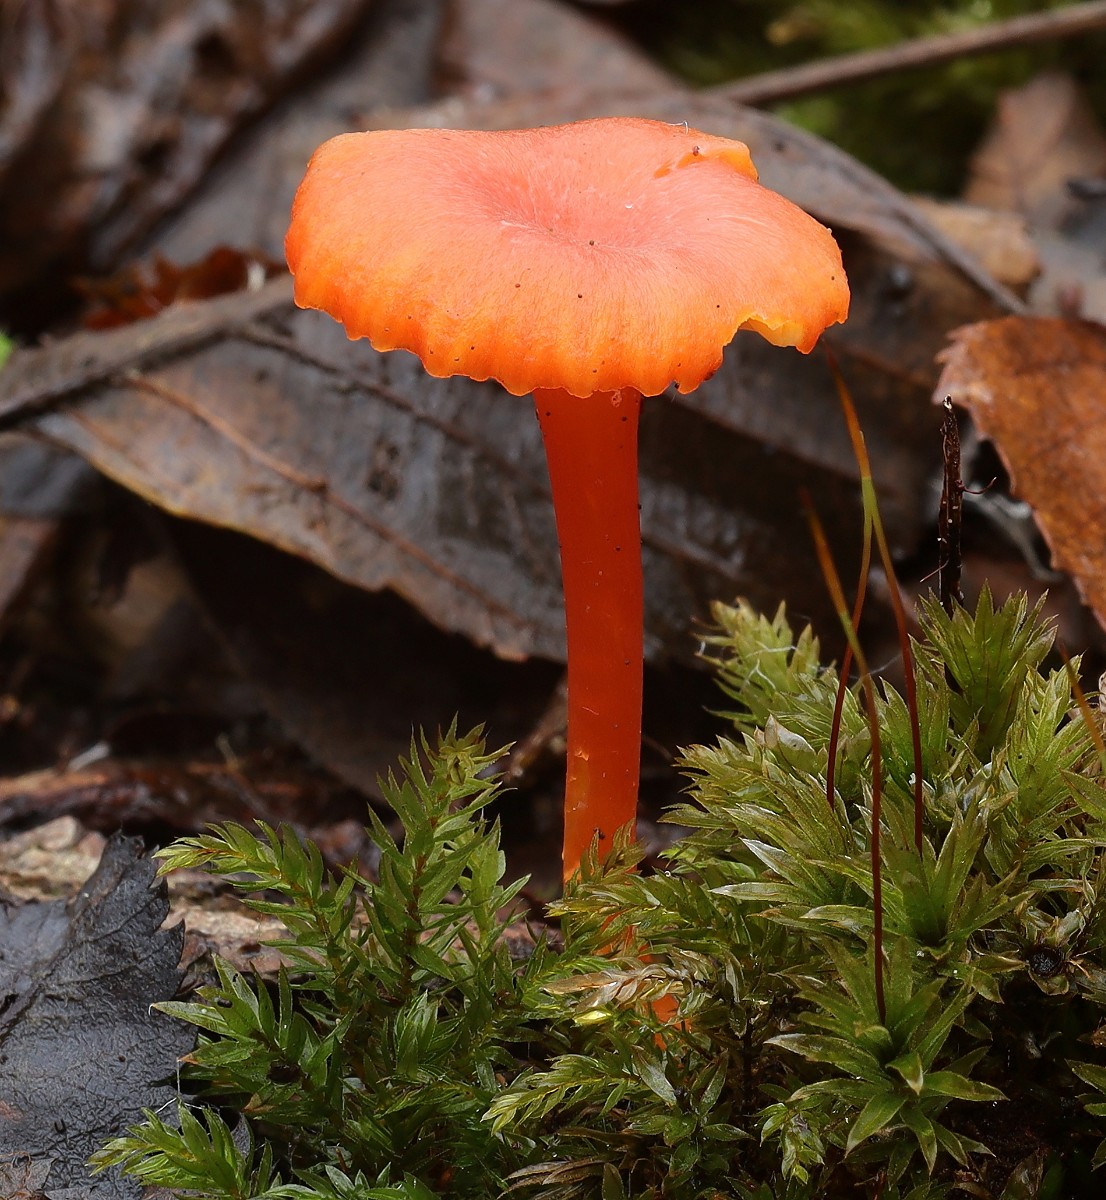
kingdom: Fungi
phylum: Basidiomycota
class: Agaricomycetes
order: Agaricales
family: Hygrophoraceae
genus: Hygrocybe
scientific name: Hygrocybe cantharellus
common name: kantarel-vokshat
